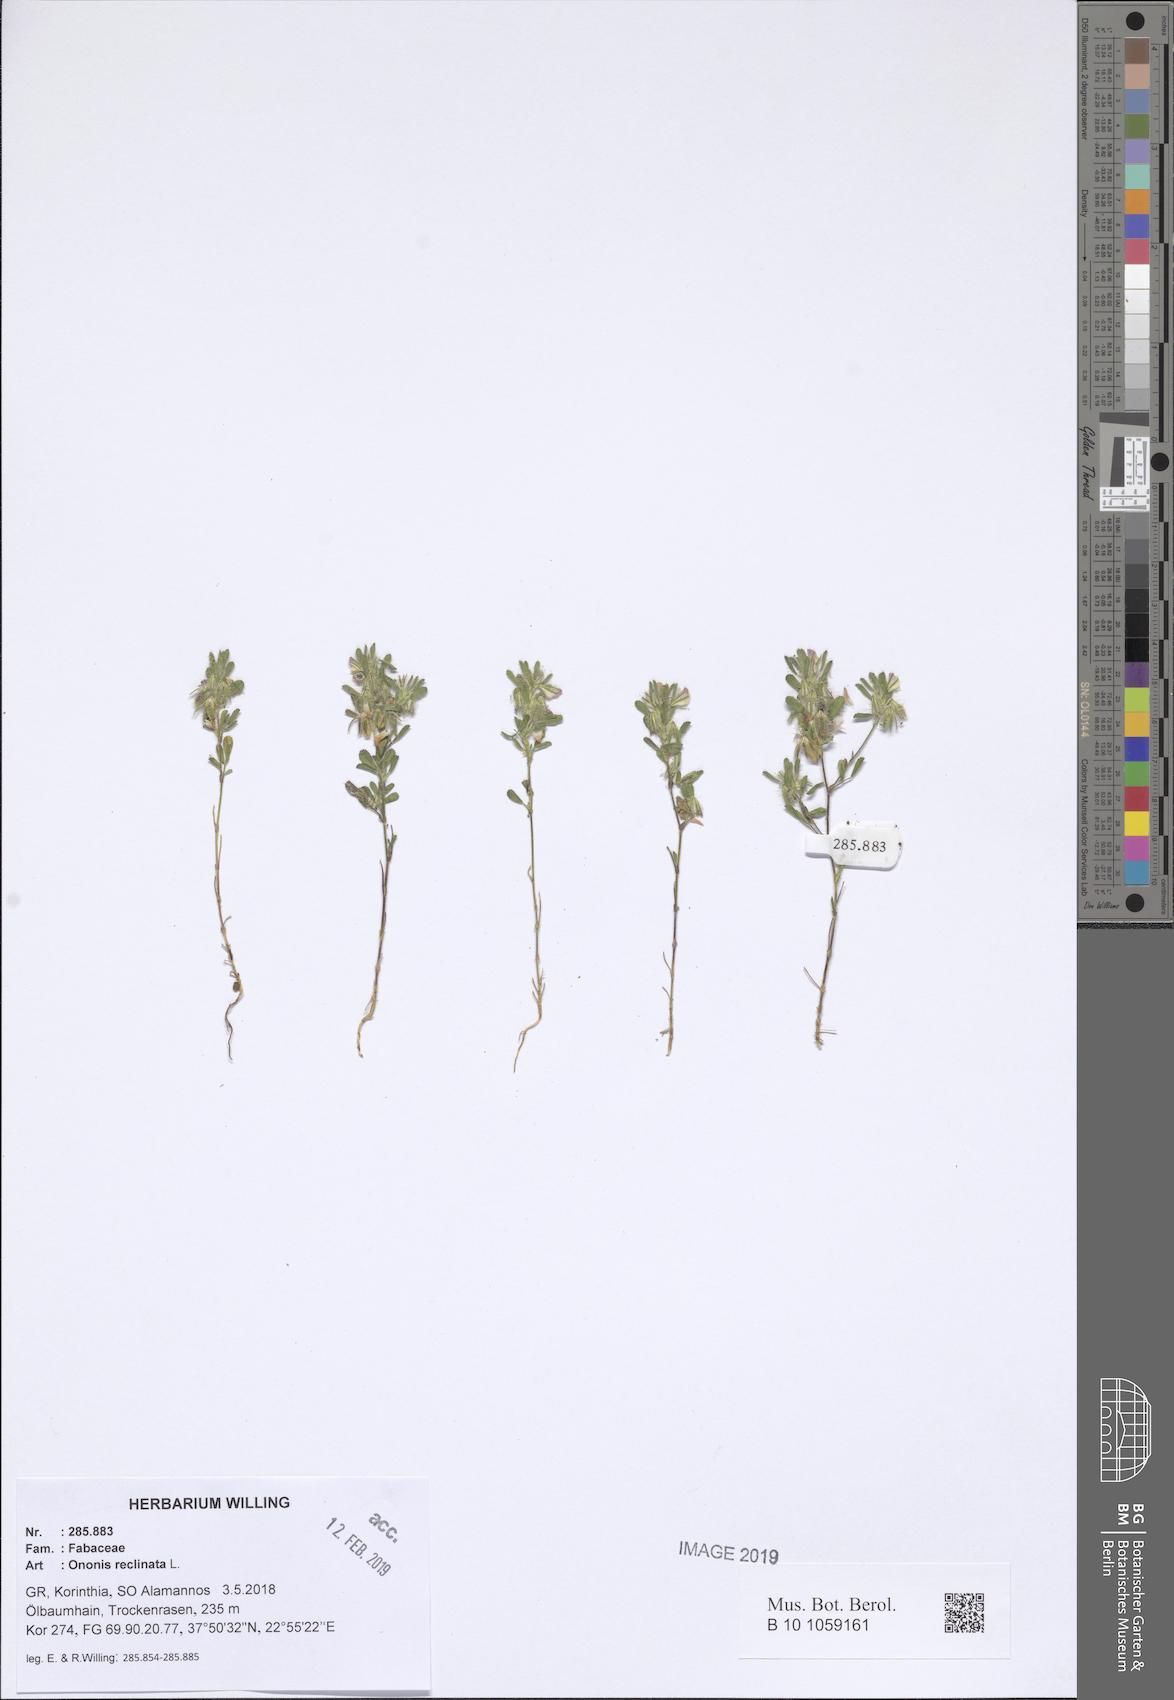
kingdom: Plantae
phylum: Tracheophyta
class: Magnoliopsida
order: Fabales
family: Fabaceae
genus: Ononis
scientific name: Ononis reclinata
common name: Small restharrow
